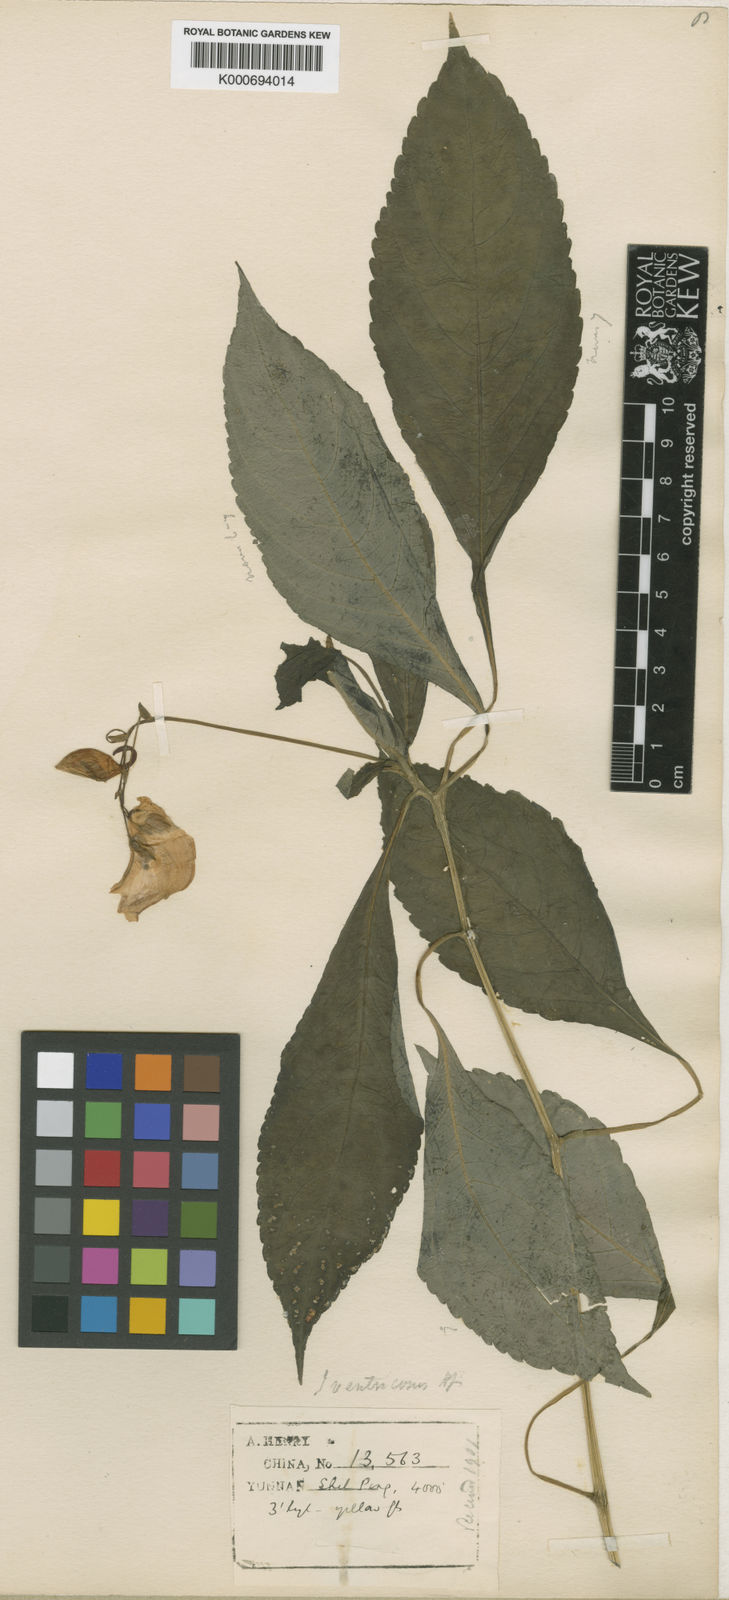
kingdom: Plantae
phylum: Tracheophyta
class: Magnoliopsida
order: Ericales
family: Balsaminaceae
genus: Impatiens
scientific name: Impatiens
